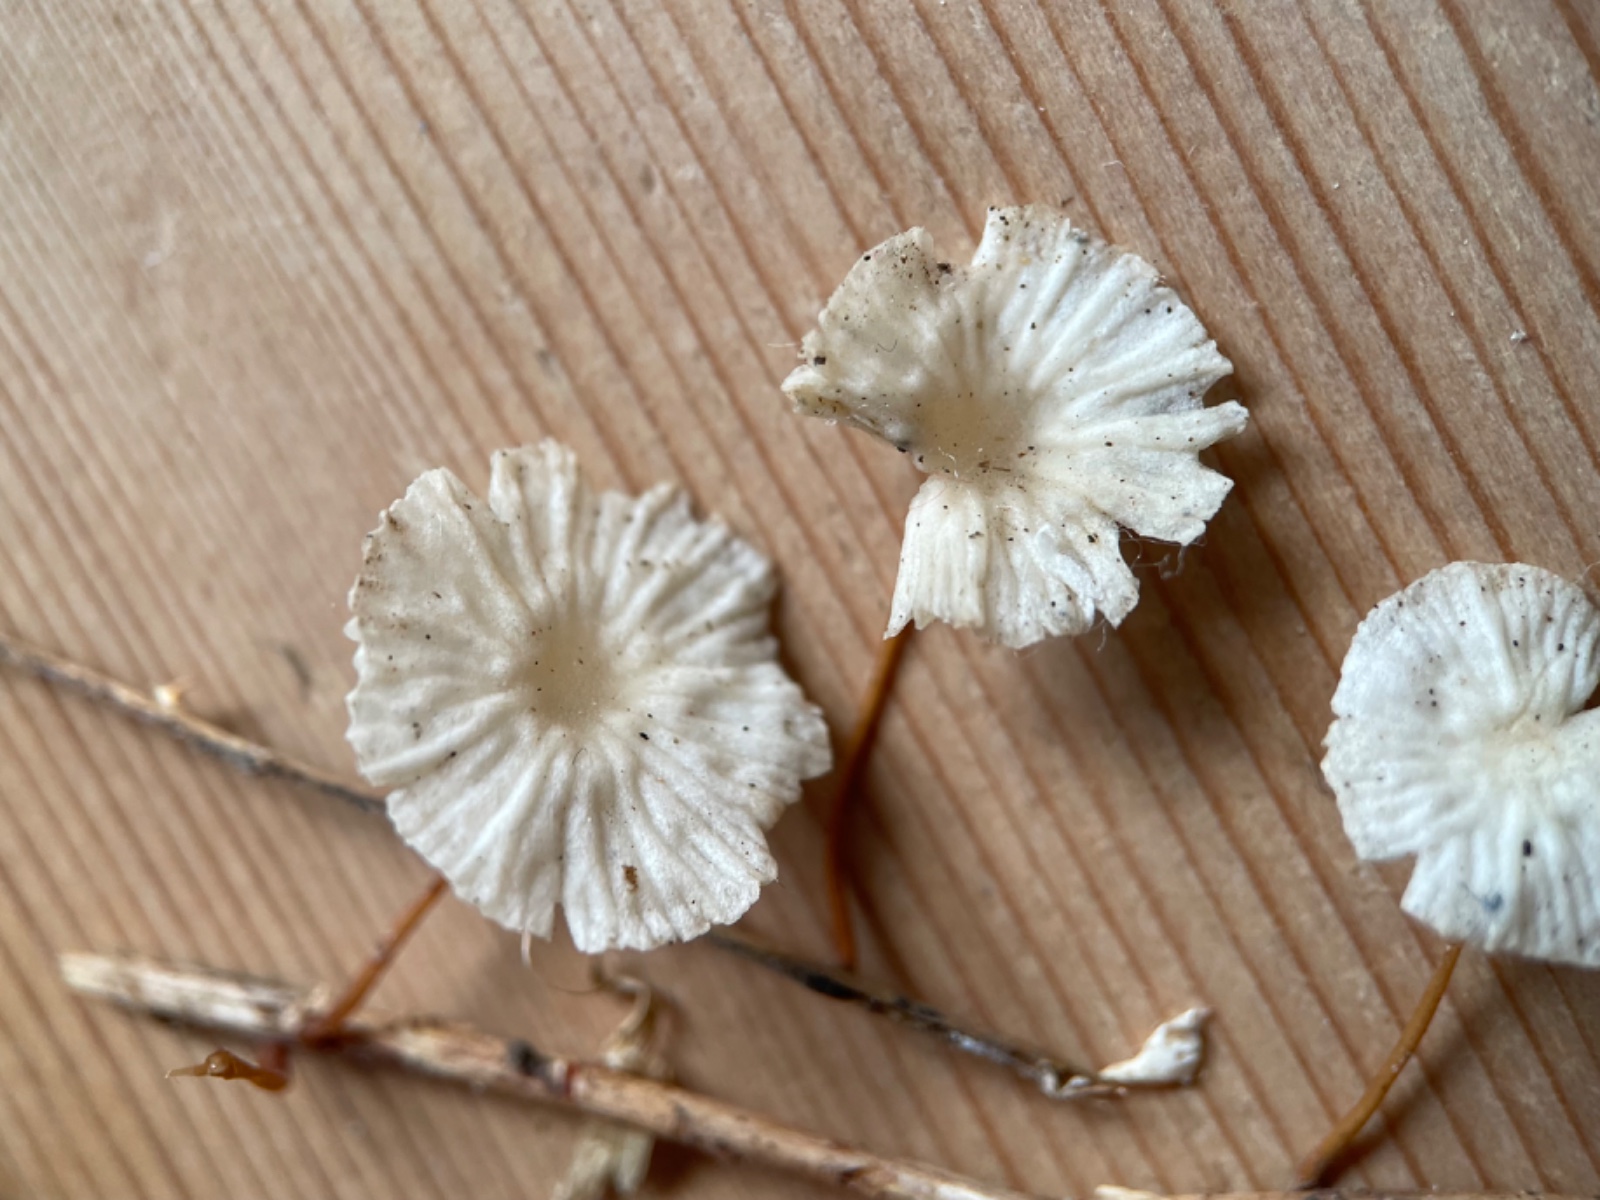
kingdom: Fungi
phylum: Basidiomycota
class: Agaricomycetes
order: Agaricales
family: Omphalotaceae
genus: Collybiopsis
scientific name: Collybiopsis vaillantii
